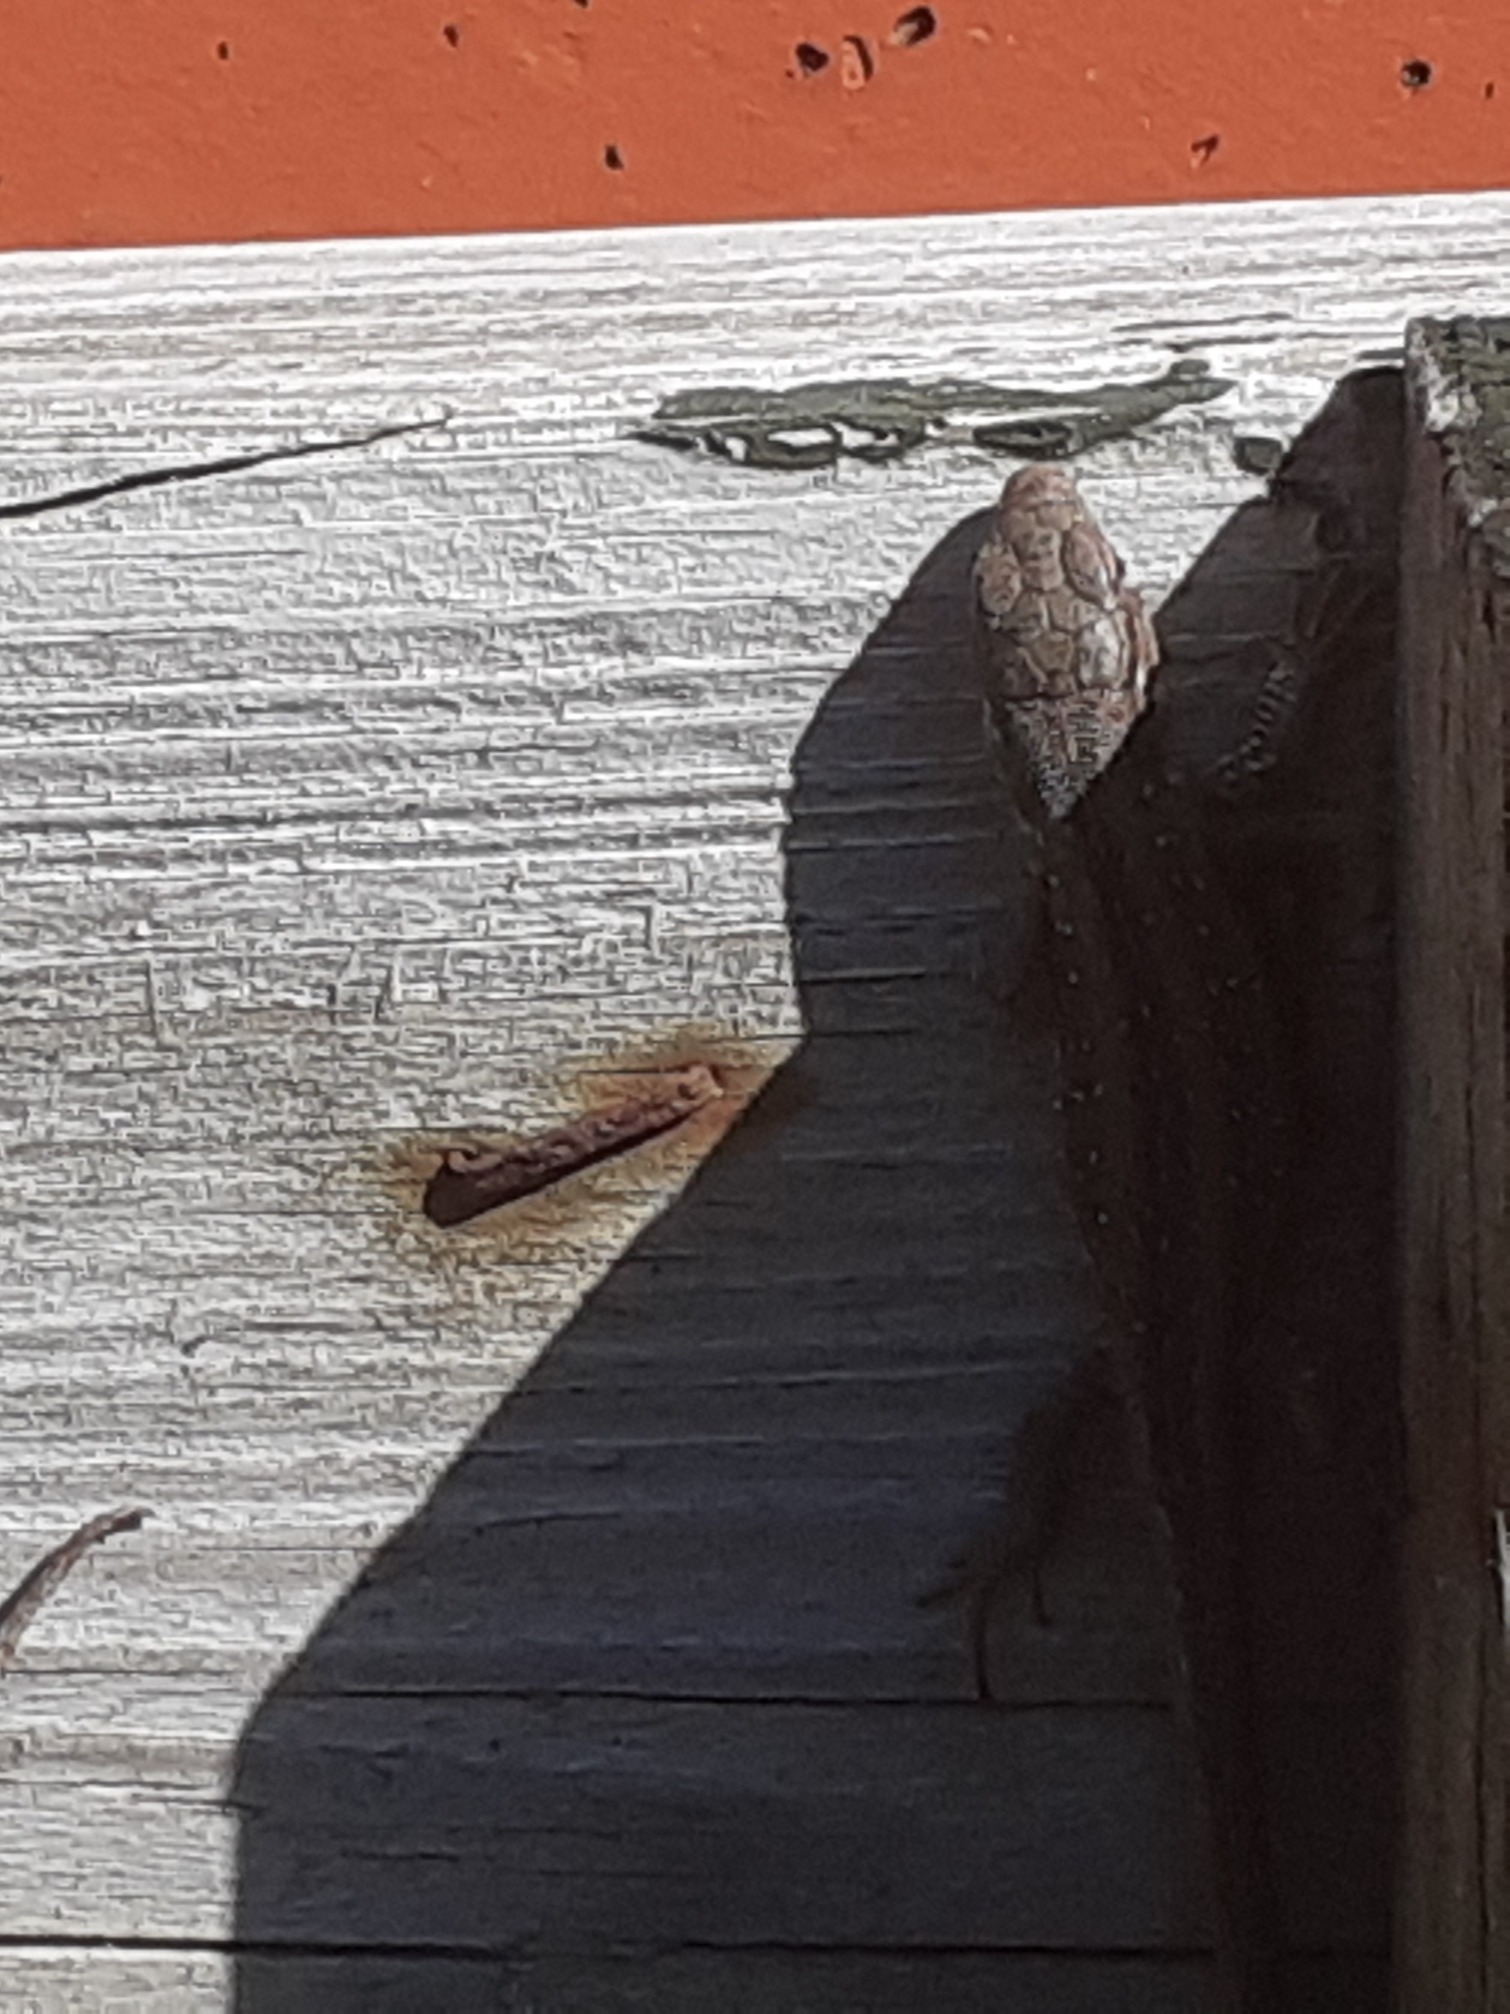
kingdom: Animalia
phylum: Chordata
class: Squamata
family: Lacertidae
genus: Lacerta
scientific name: Lacerta agilis
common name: Markfirben
